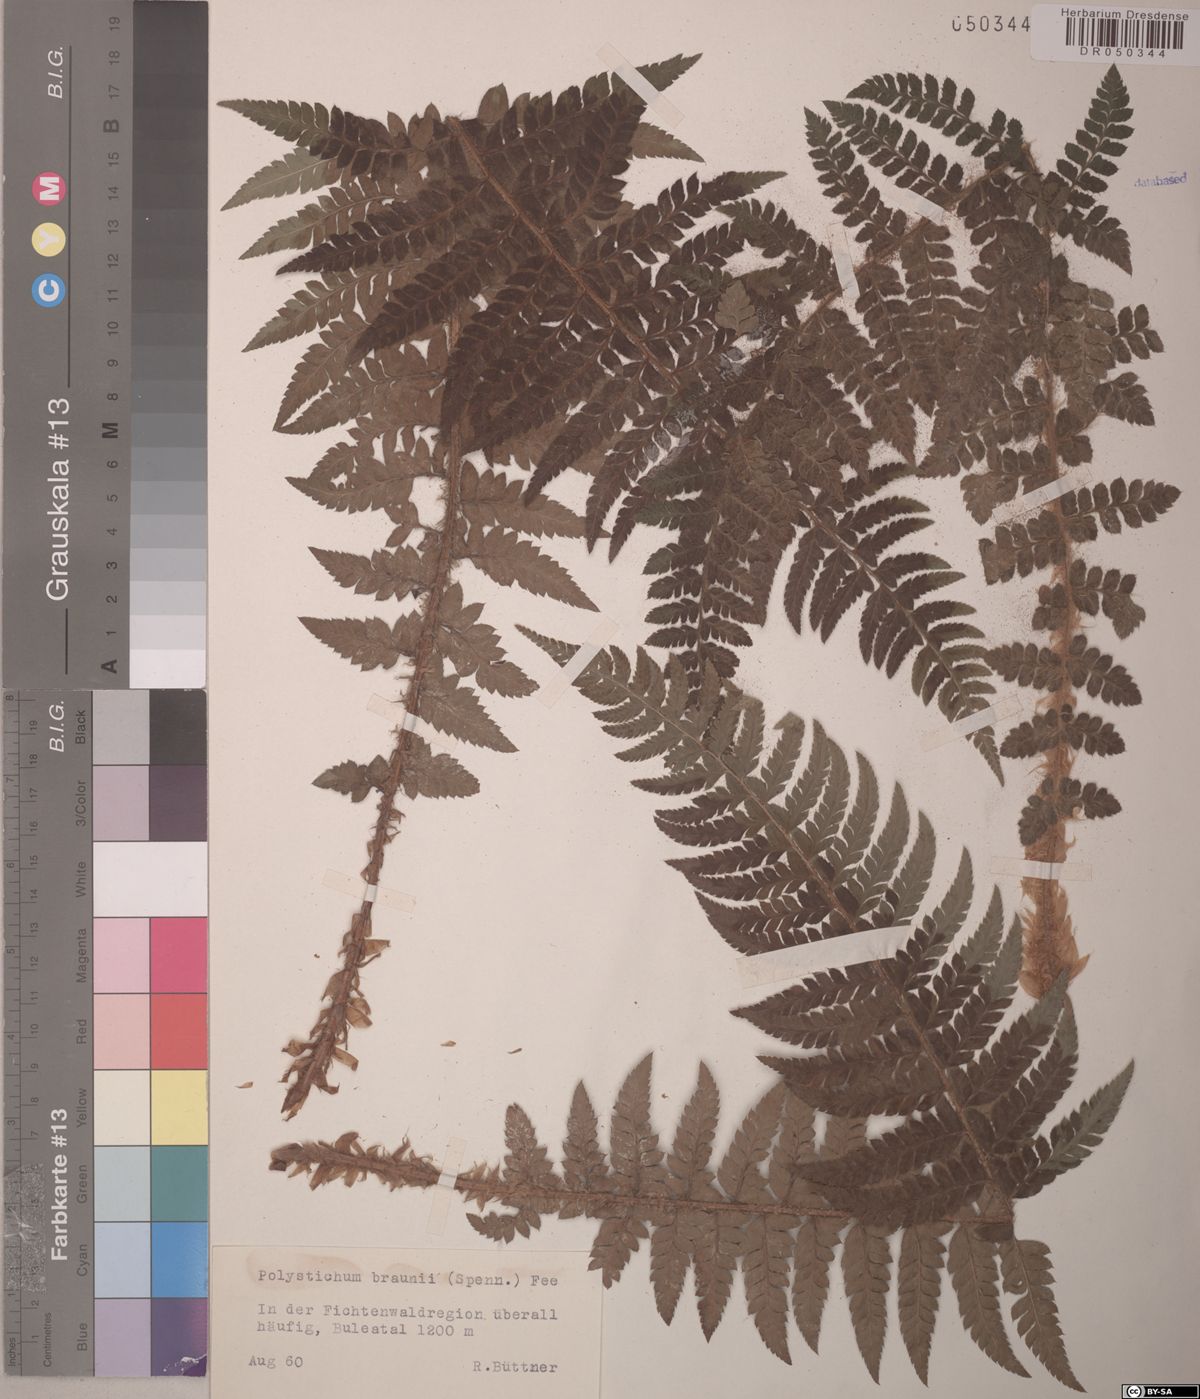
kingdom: Plantae
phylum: Tracheophyta
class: Polypodiopsida
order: Polypodiales
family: Dryopteridaceae
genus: Polystichum
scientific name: Polystichum braunii
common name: Braun's holly fern
